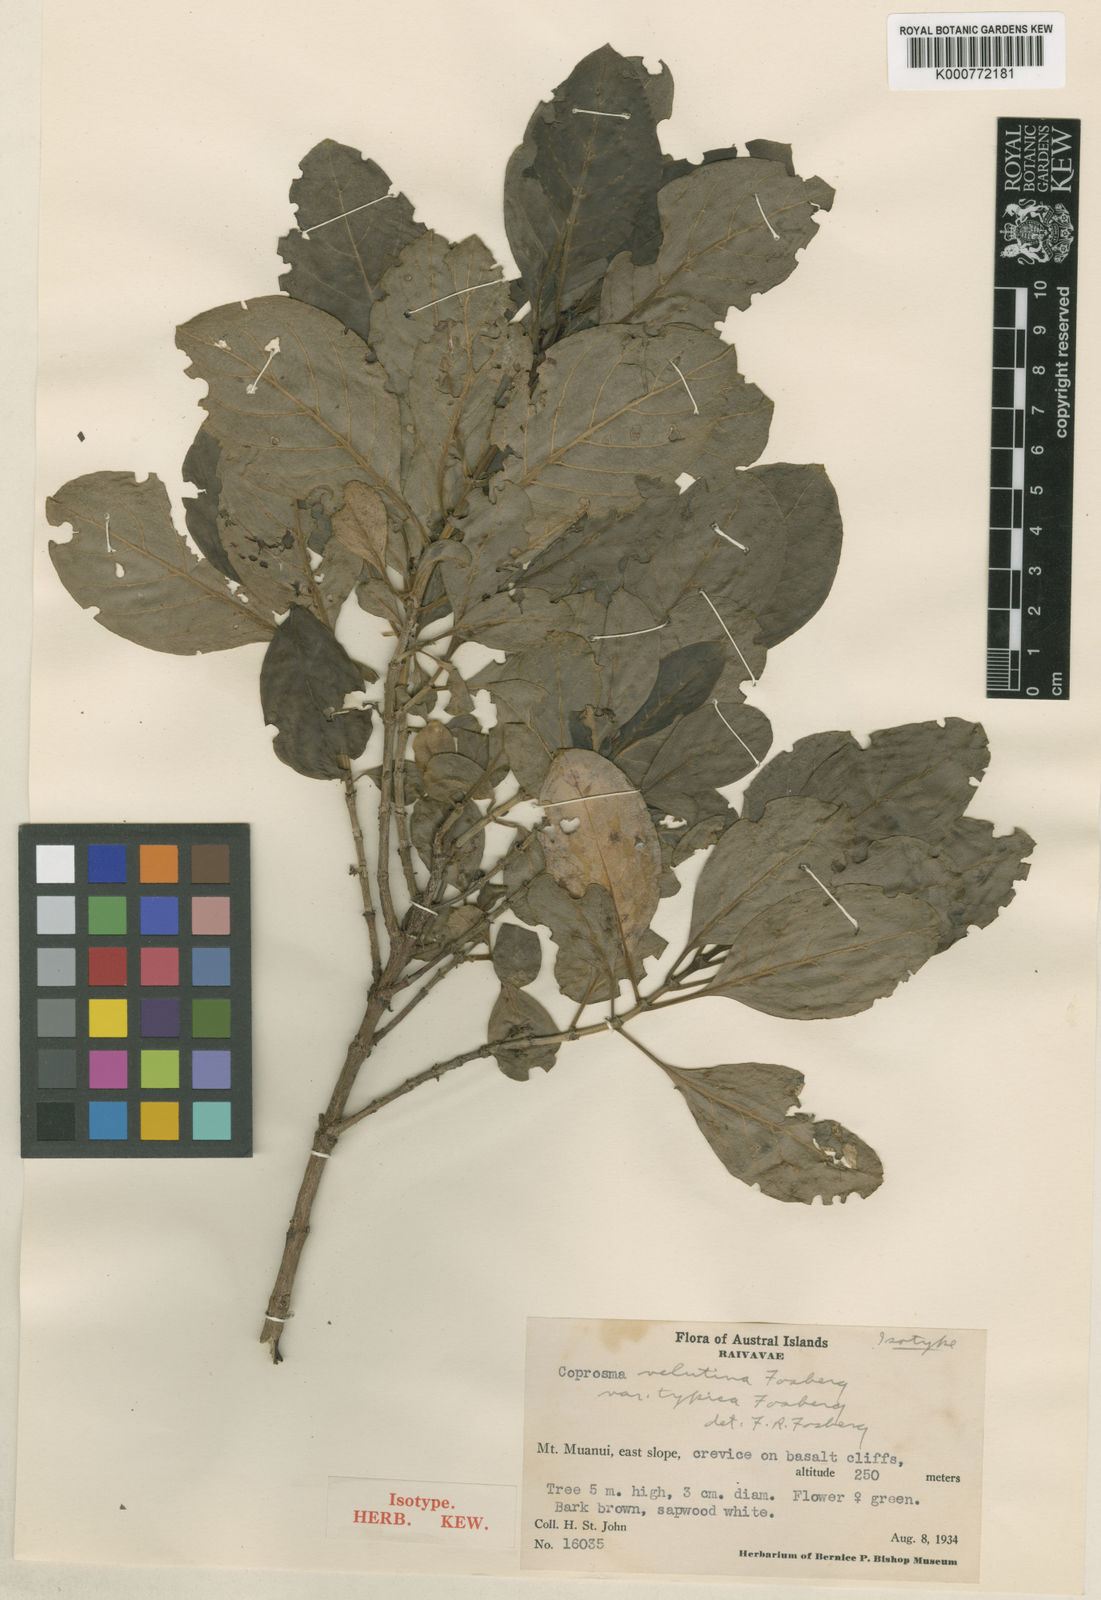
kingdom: Plantae
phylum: Tracheophyta
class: Magnoliopsida
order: Gentianales
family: Rubiaceae
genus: Coprosma
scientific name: Coprosma velutina
